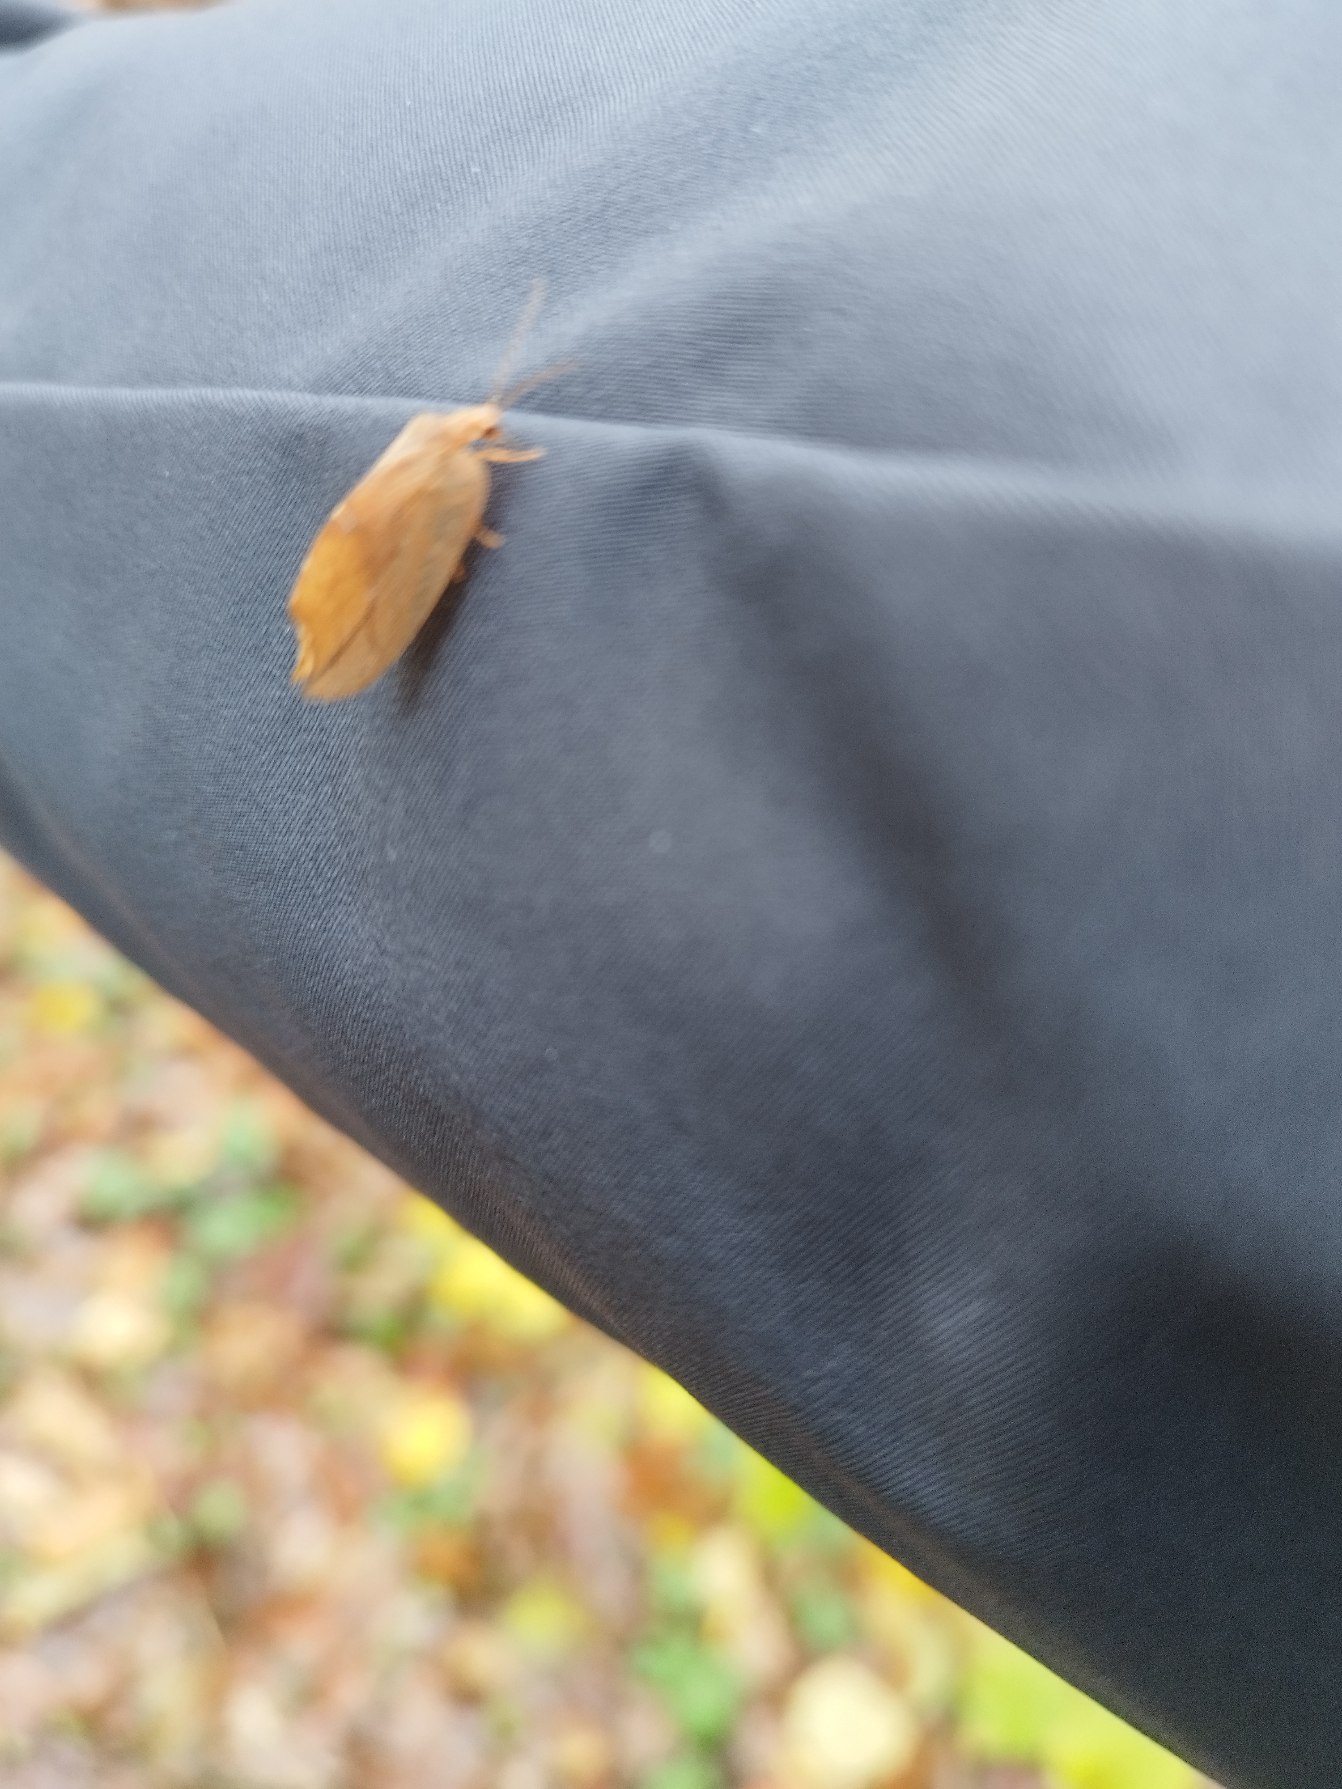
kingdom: Animalia
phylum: Arthropoda
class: Insecta
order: Neuroptera
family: Hemerobiidae
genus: Drepanepteryx
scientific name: Drepanepteryx phalaenoides
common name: Det visne blad
